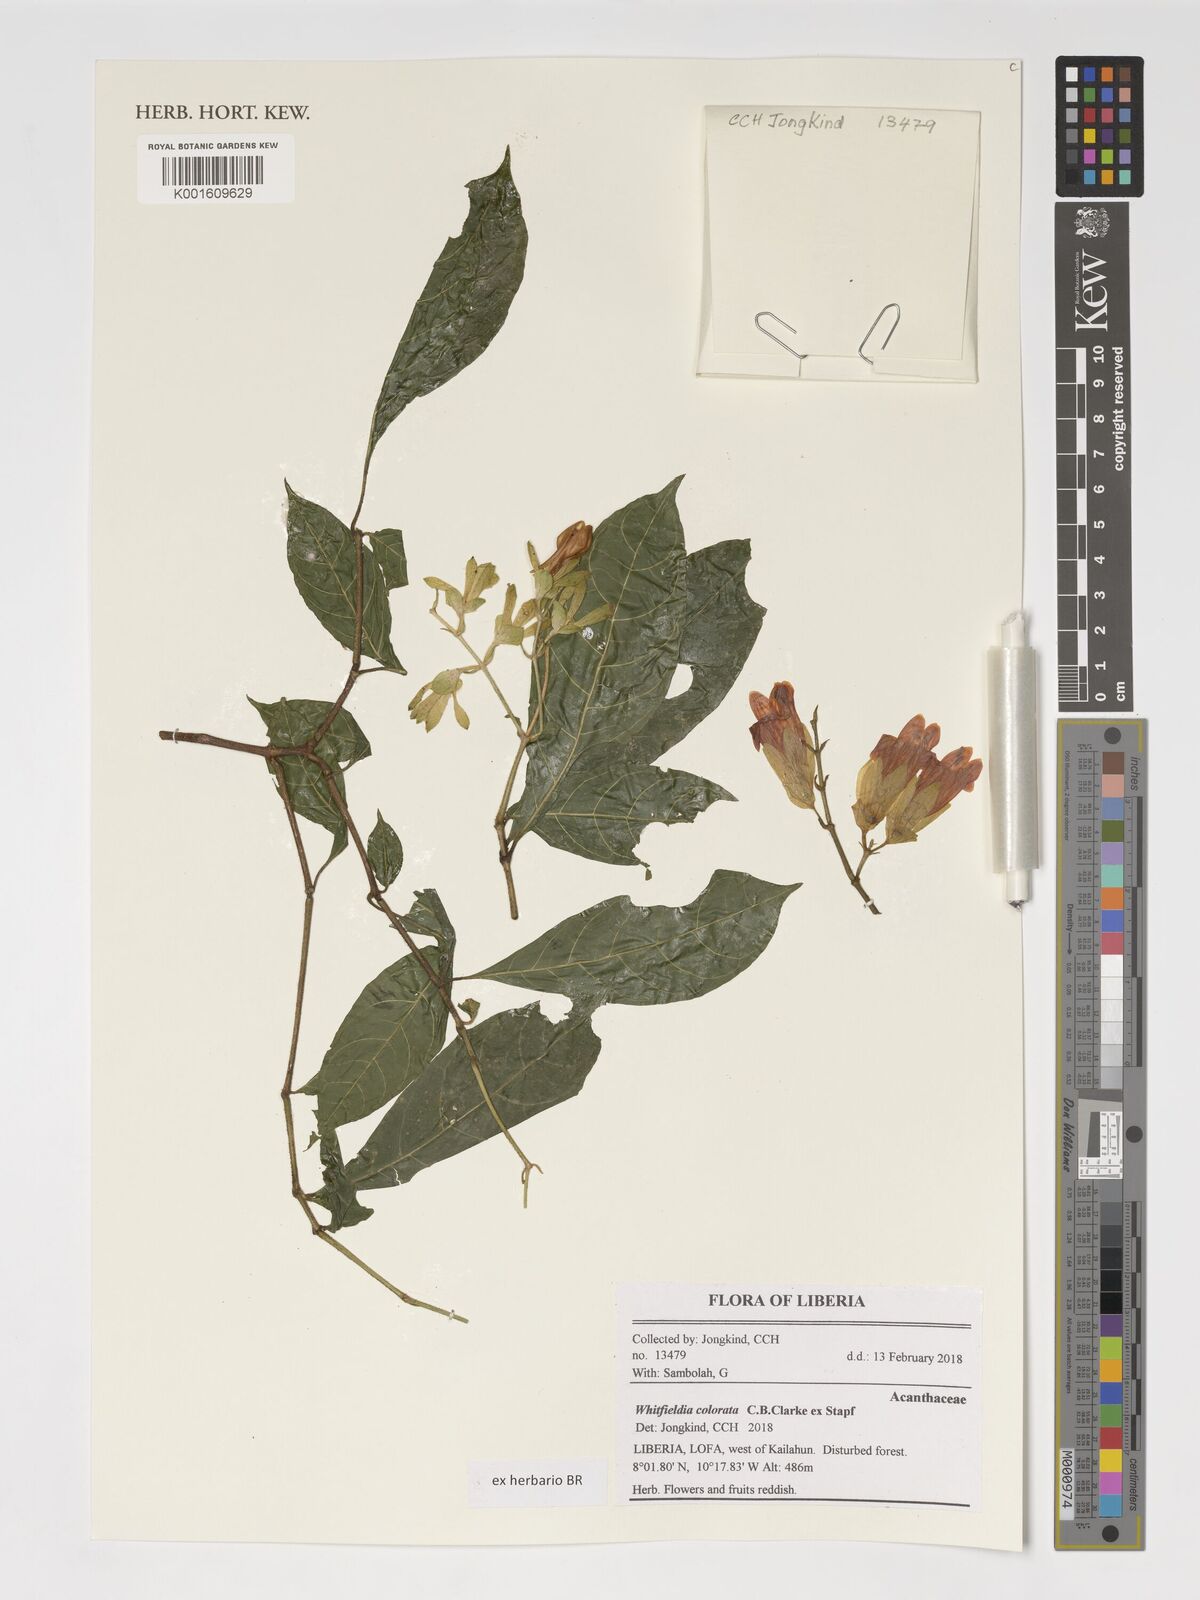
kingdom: Plantae
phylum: Tracheophyta
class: Magnoliopsida
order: Lamiales
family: Acanthaceae
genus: Whitfieldia
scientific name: Whitfieldia colorata
